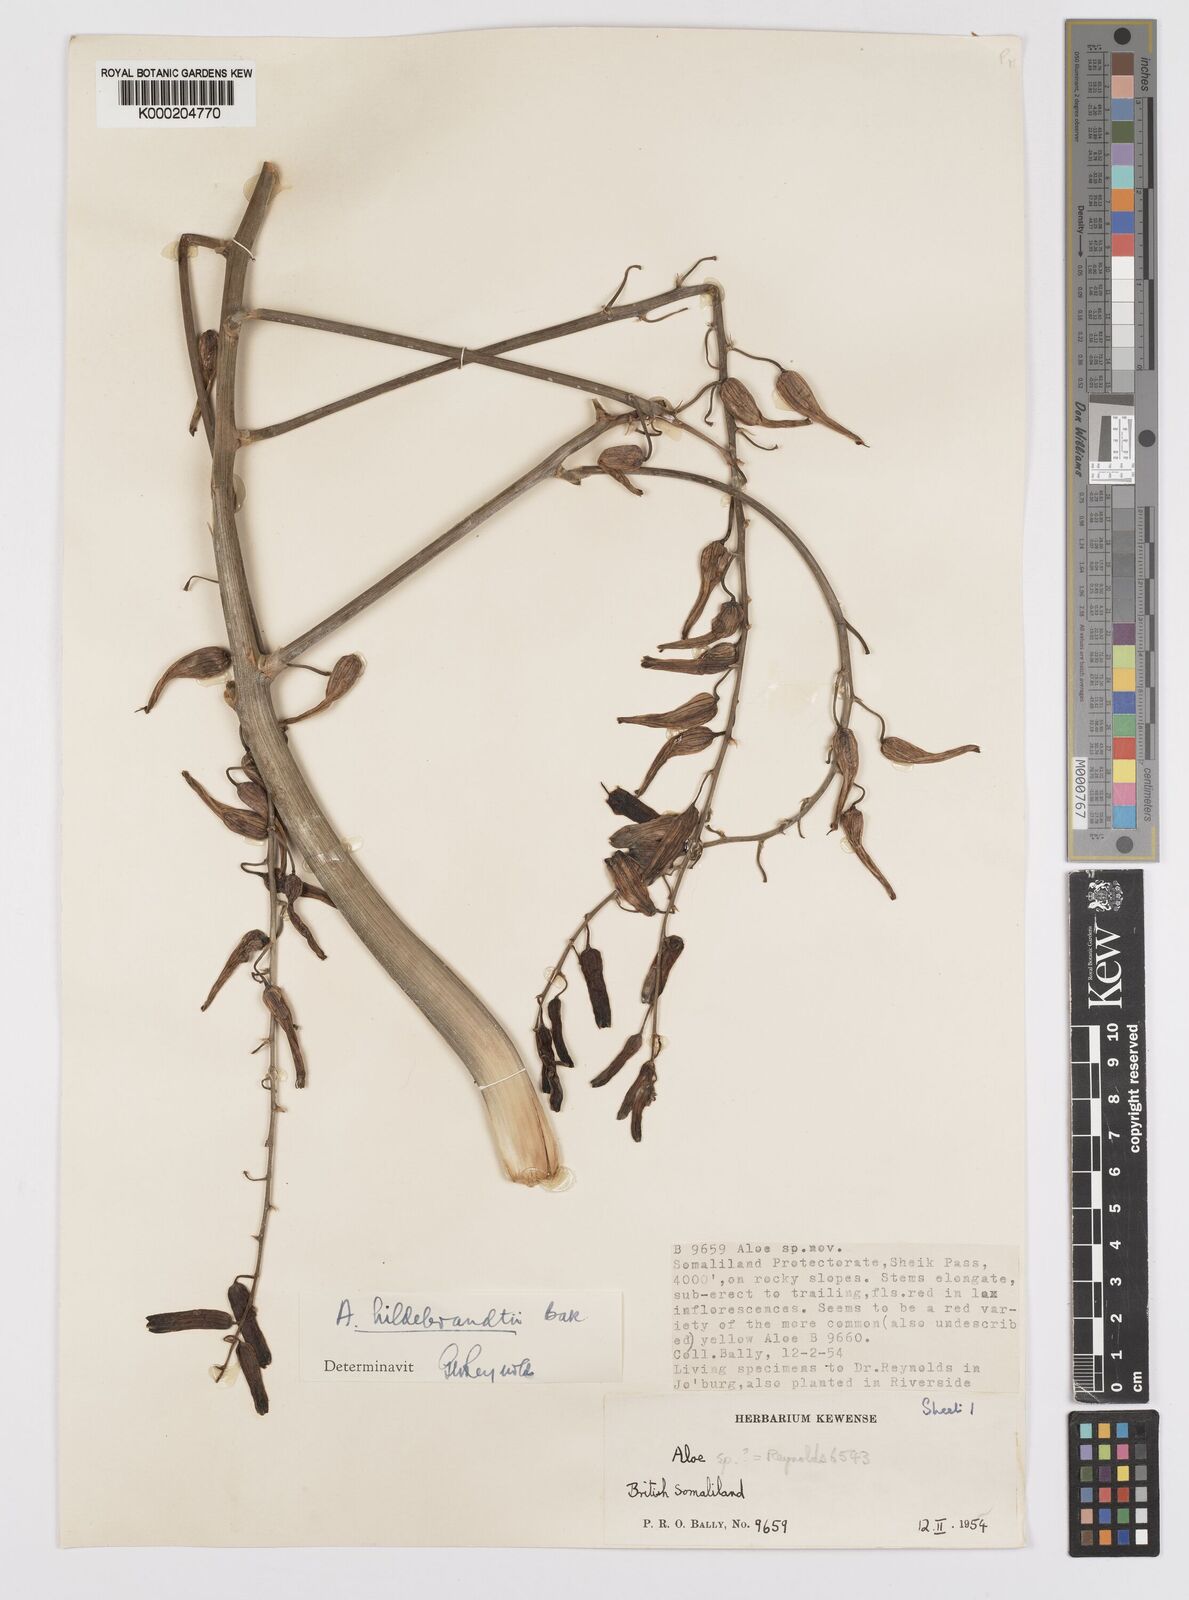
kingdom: Plantae
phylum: Tracheophyta
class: Liliopsida
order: Asparagales
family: Asphodelaceae
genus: Aloe
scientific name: Aloe hildebrandtii
